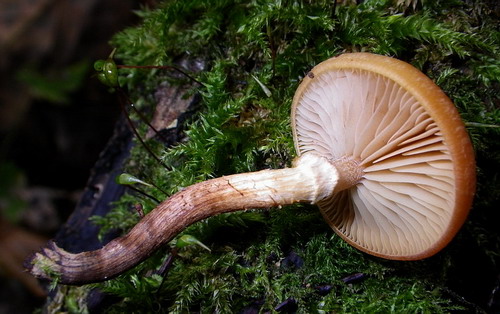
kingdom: Fungi
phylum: Basidiomycota
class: Agaricomycetes
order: Agaricales
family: Hymenogastraceae
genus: Galerina
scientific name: Galerina marginata
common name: randbæltet hjelmhat
